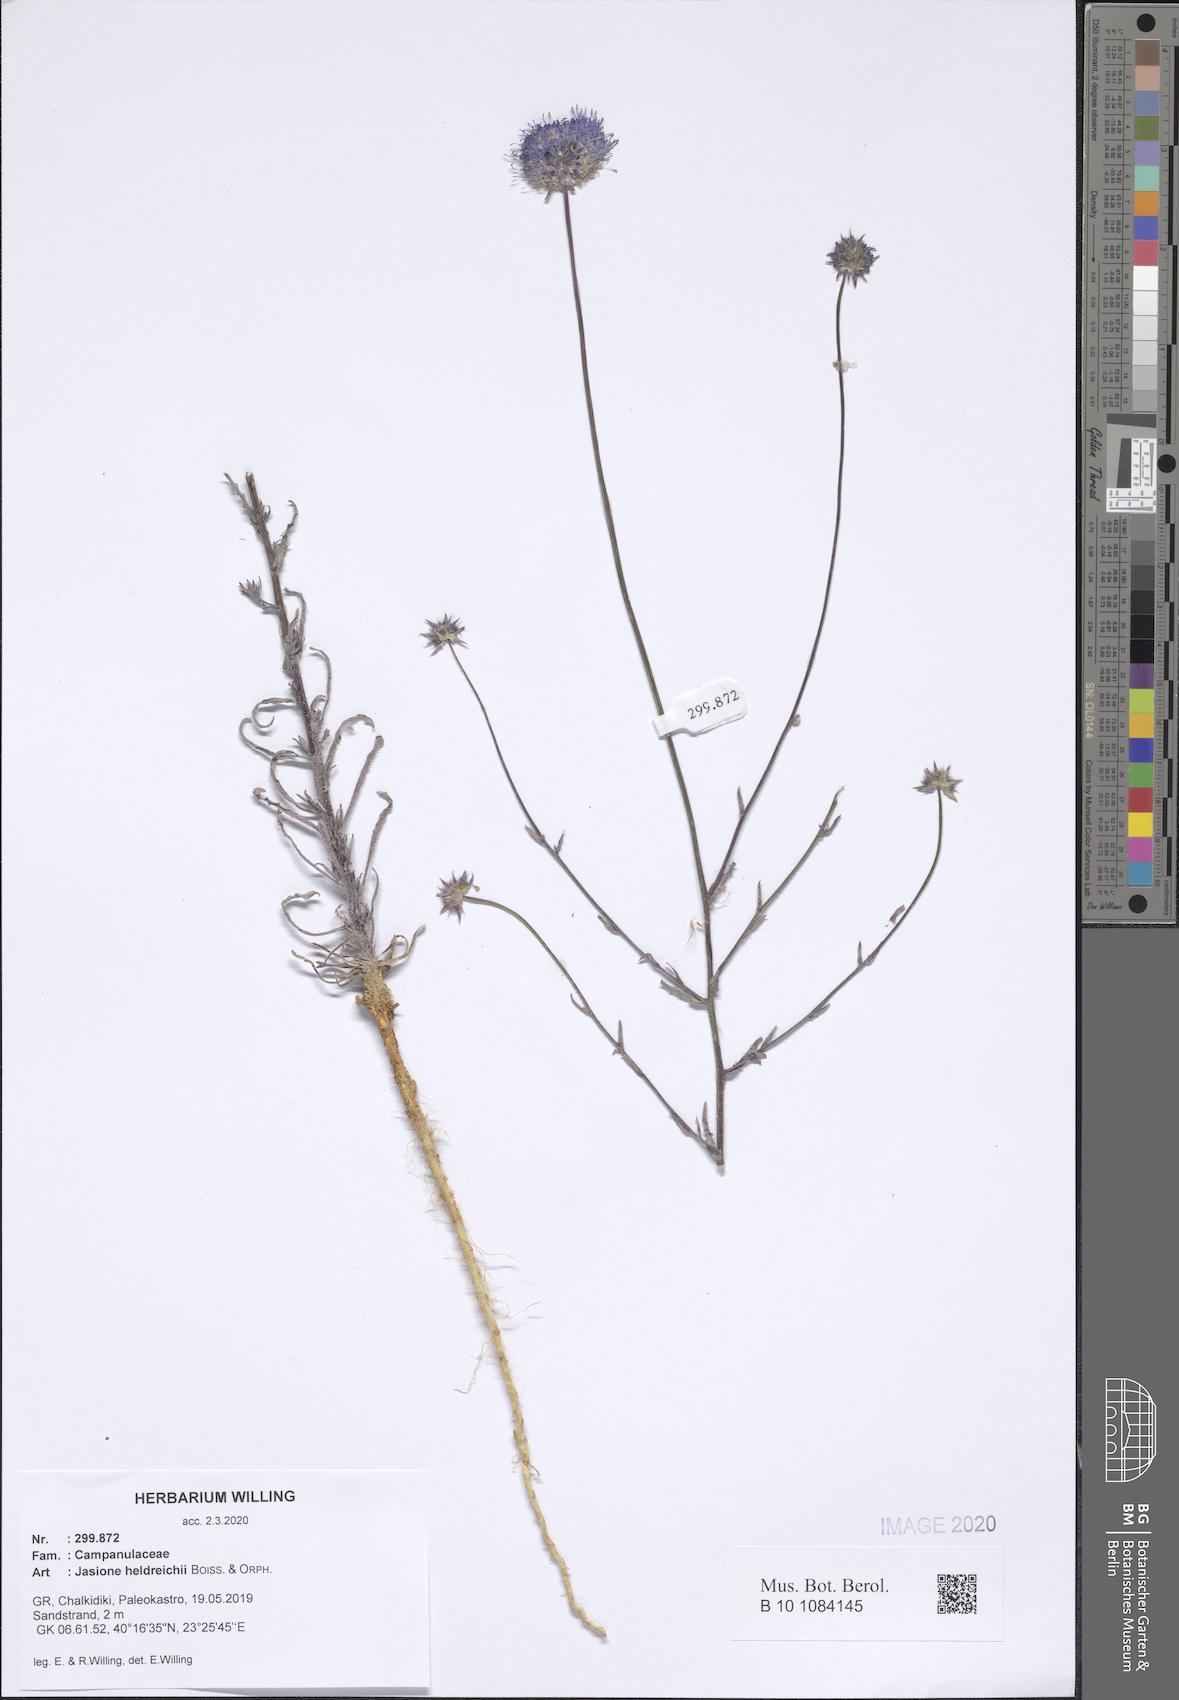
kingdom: Plantae
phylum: Tracheophyta
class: Magnoliopsida
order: Asterales
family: Campanulaceae
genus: Jasione
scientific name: Jasione heldreichii
